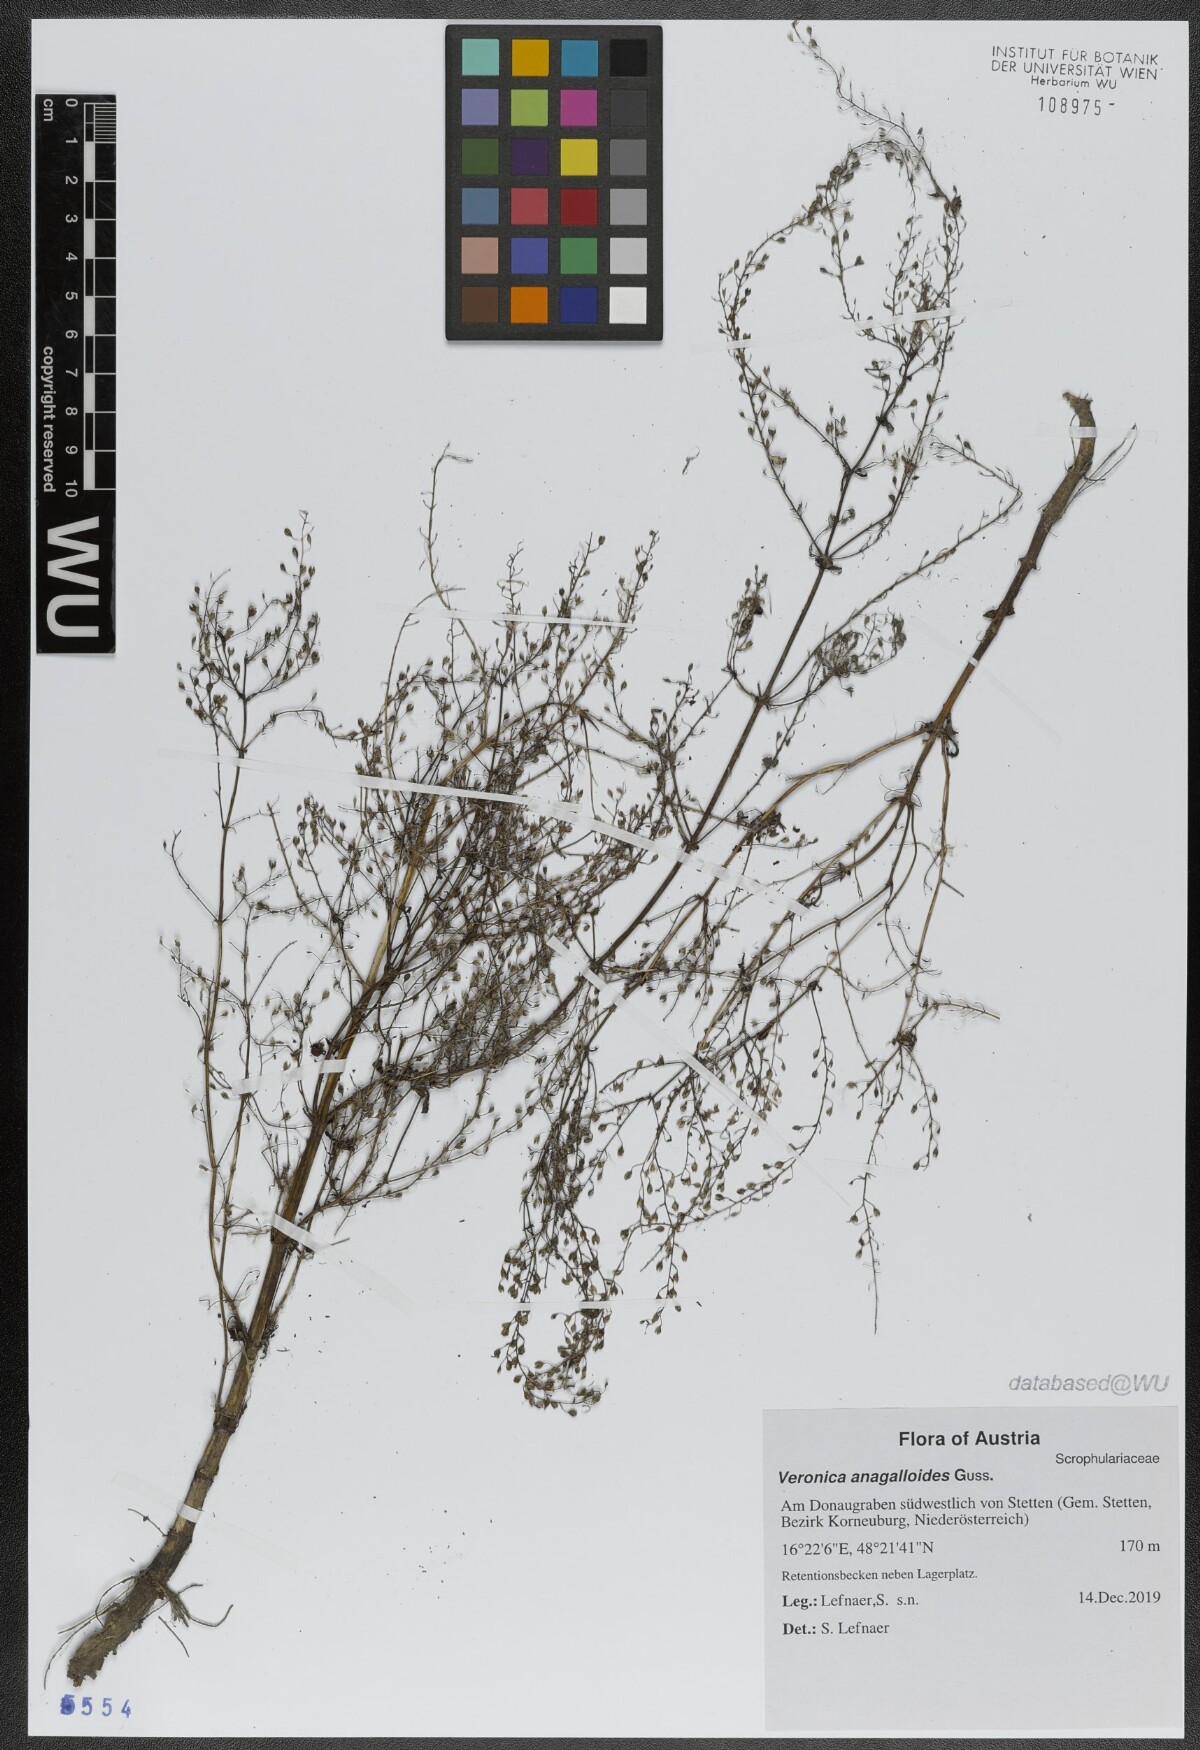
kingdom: Plantae
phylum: Tracheophyta
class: Magnoliopsida
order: Lamiales
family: Plantaginaceae
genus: Veronica
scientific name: Veronica anagalloides
